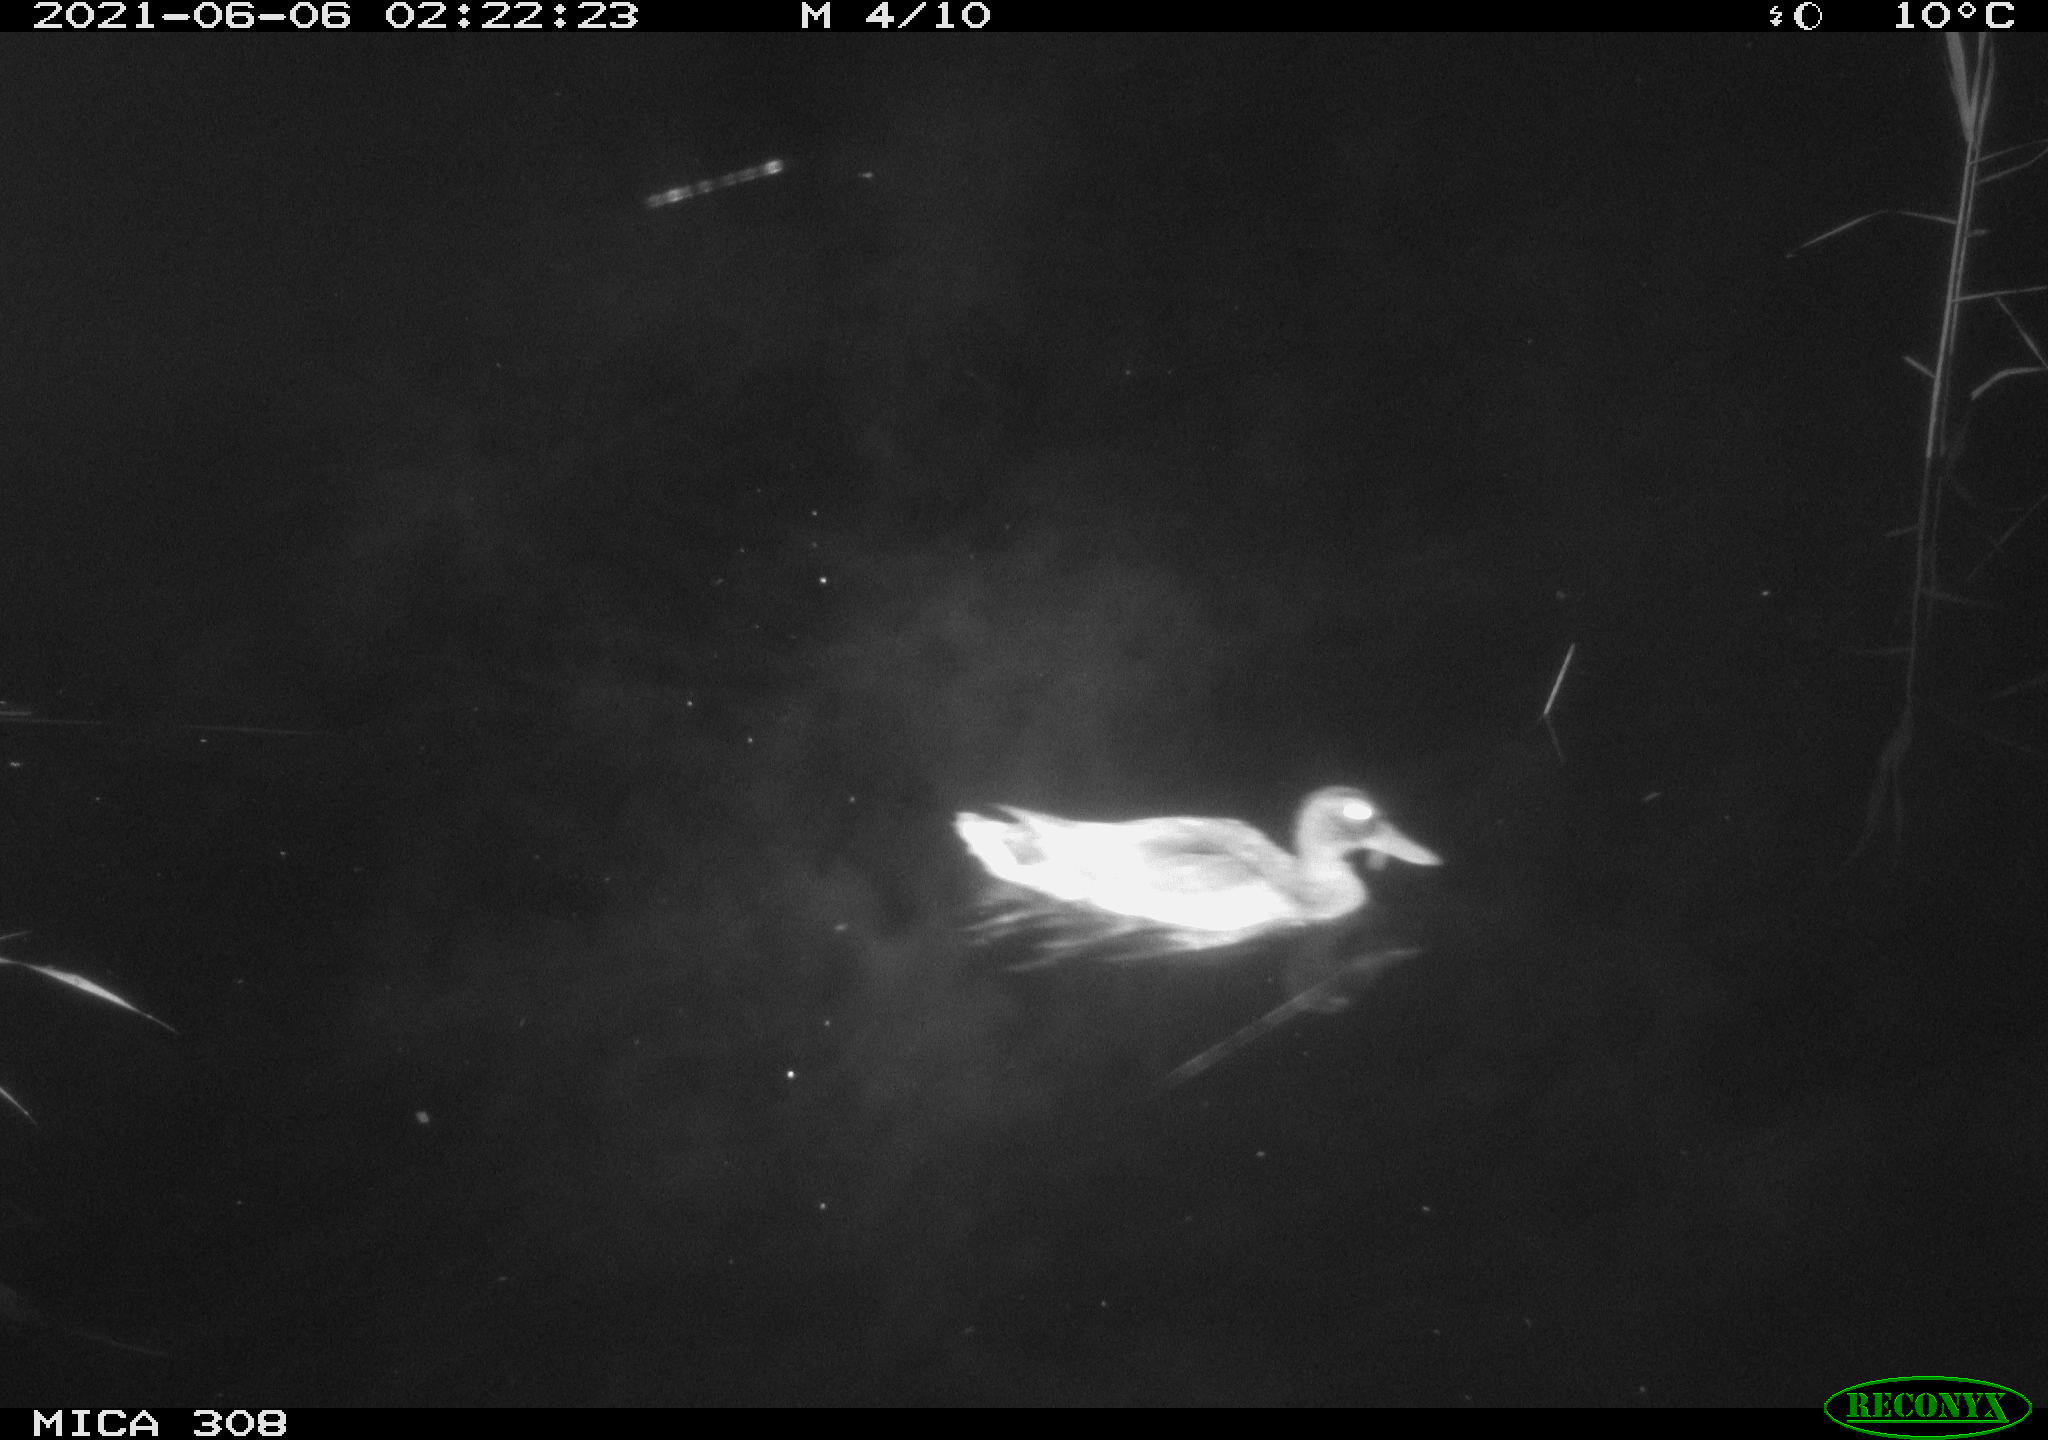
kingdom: Animalia
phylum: Chordata
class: Aves
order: Anseriformes
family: Anatidae
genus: Anas
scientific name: Anas platyrhynchos
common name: Mallard
